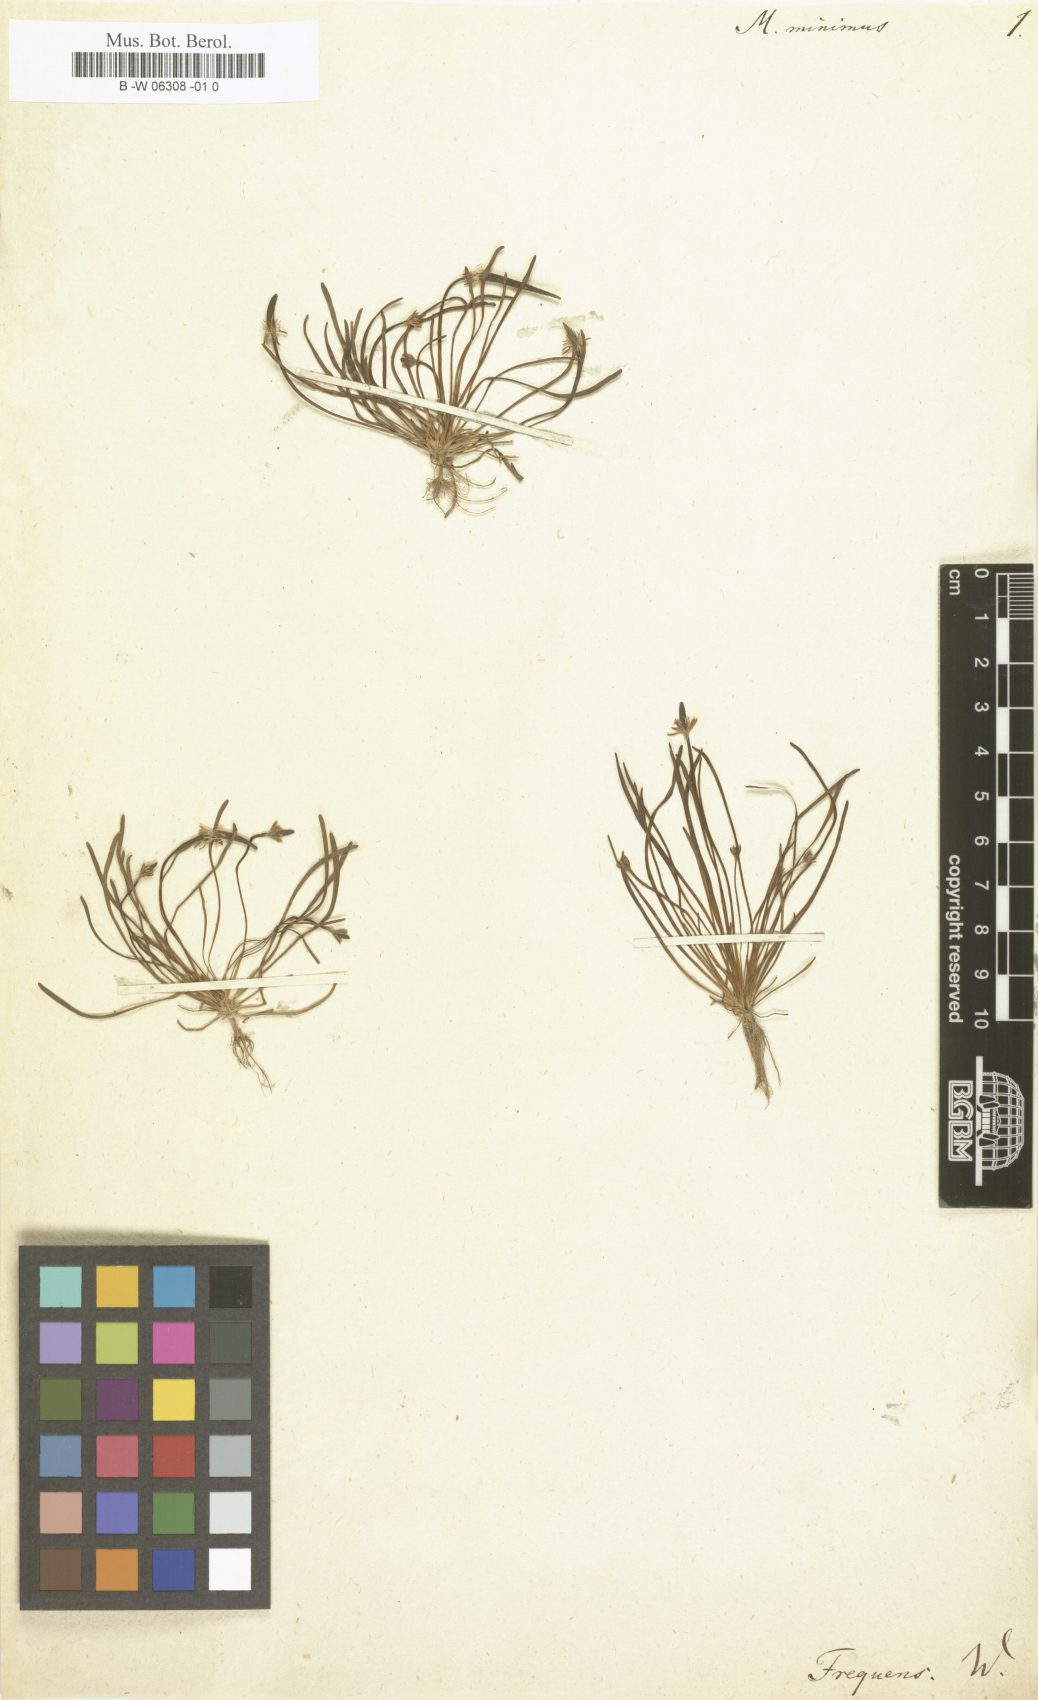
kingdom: Plantae
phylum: Tracheophyta
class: Magnoliopsida
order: Ranunculales
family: Ranunculaceae
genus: Myosurus
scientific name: Myosurus minimus
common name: Mousetail
